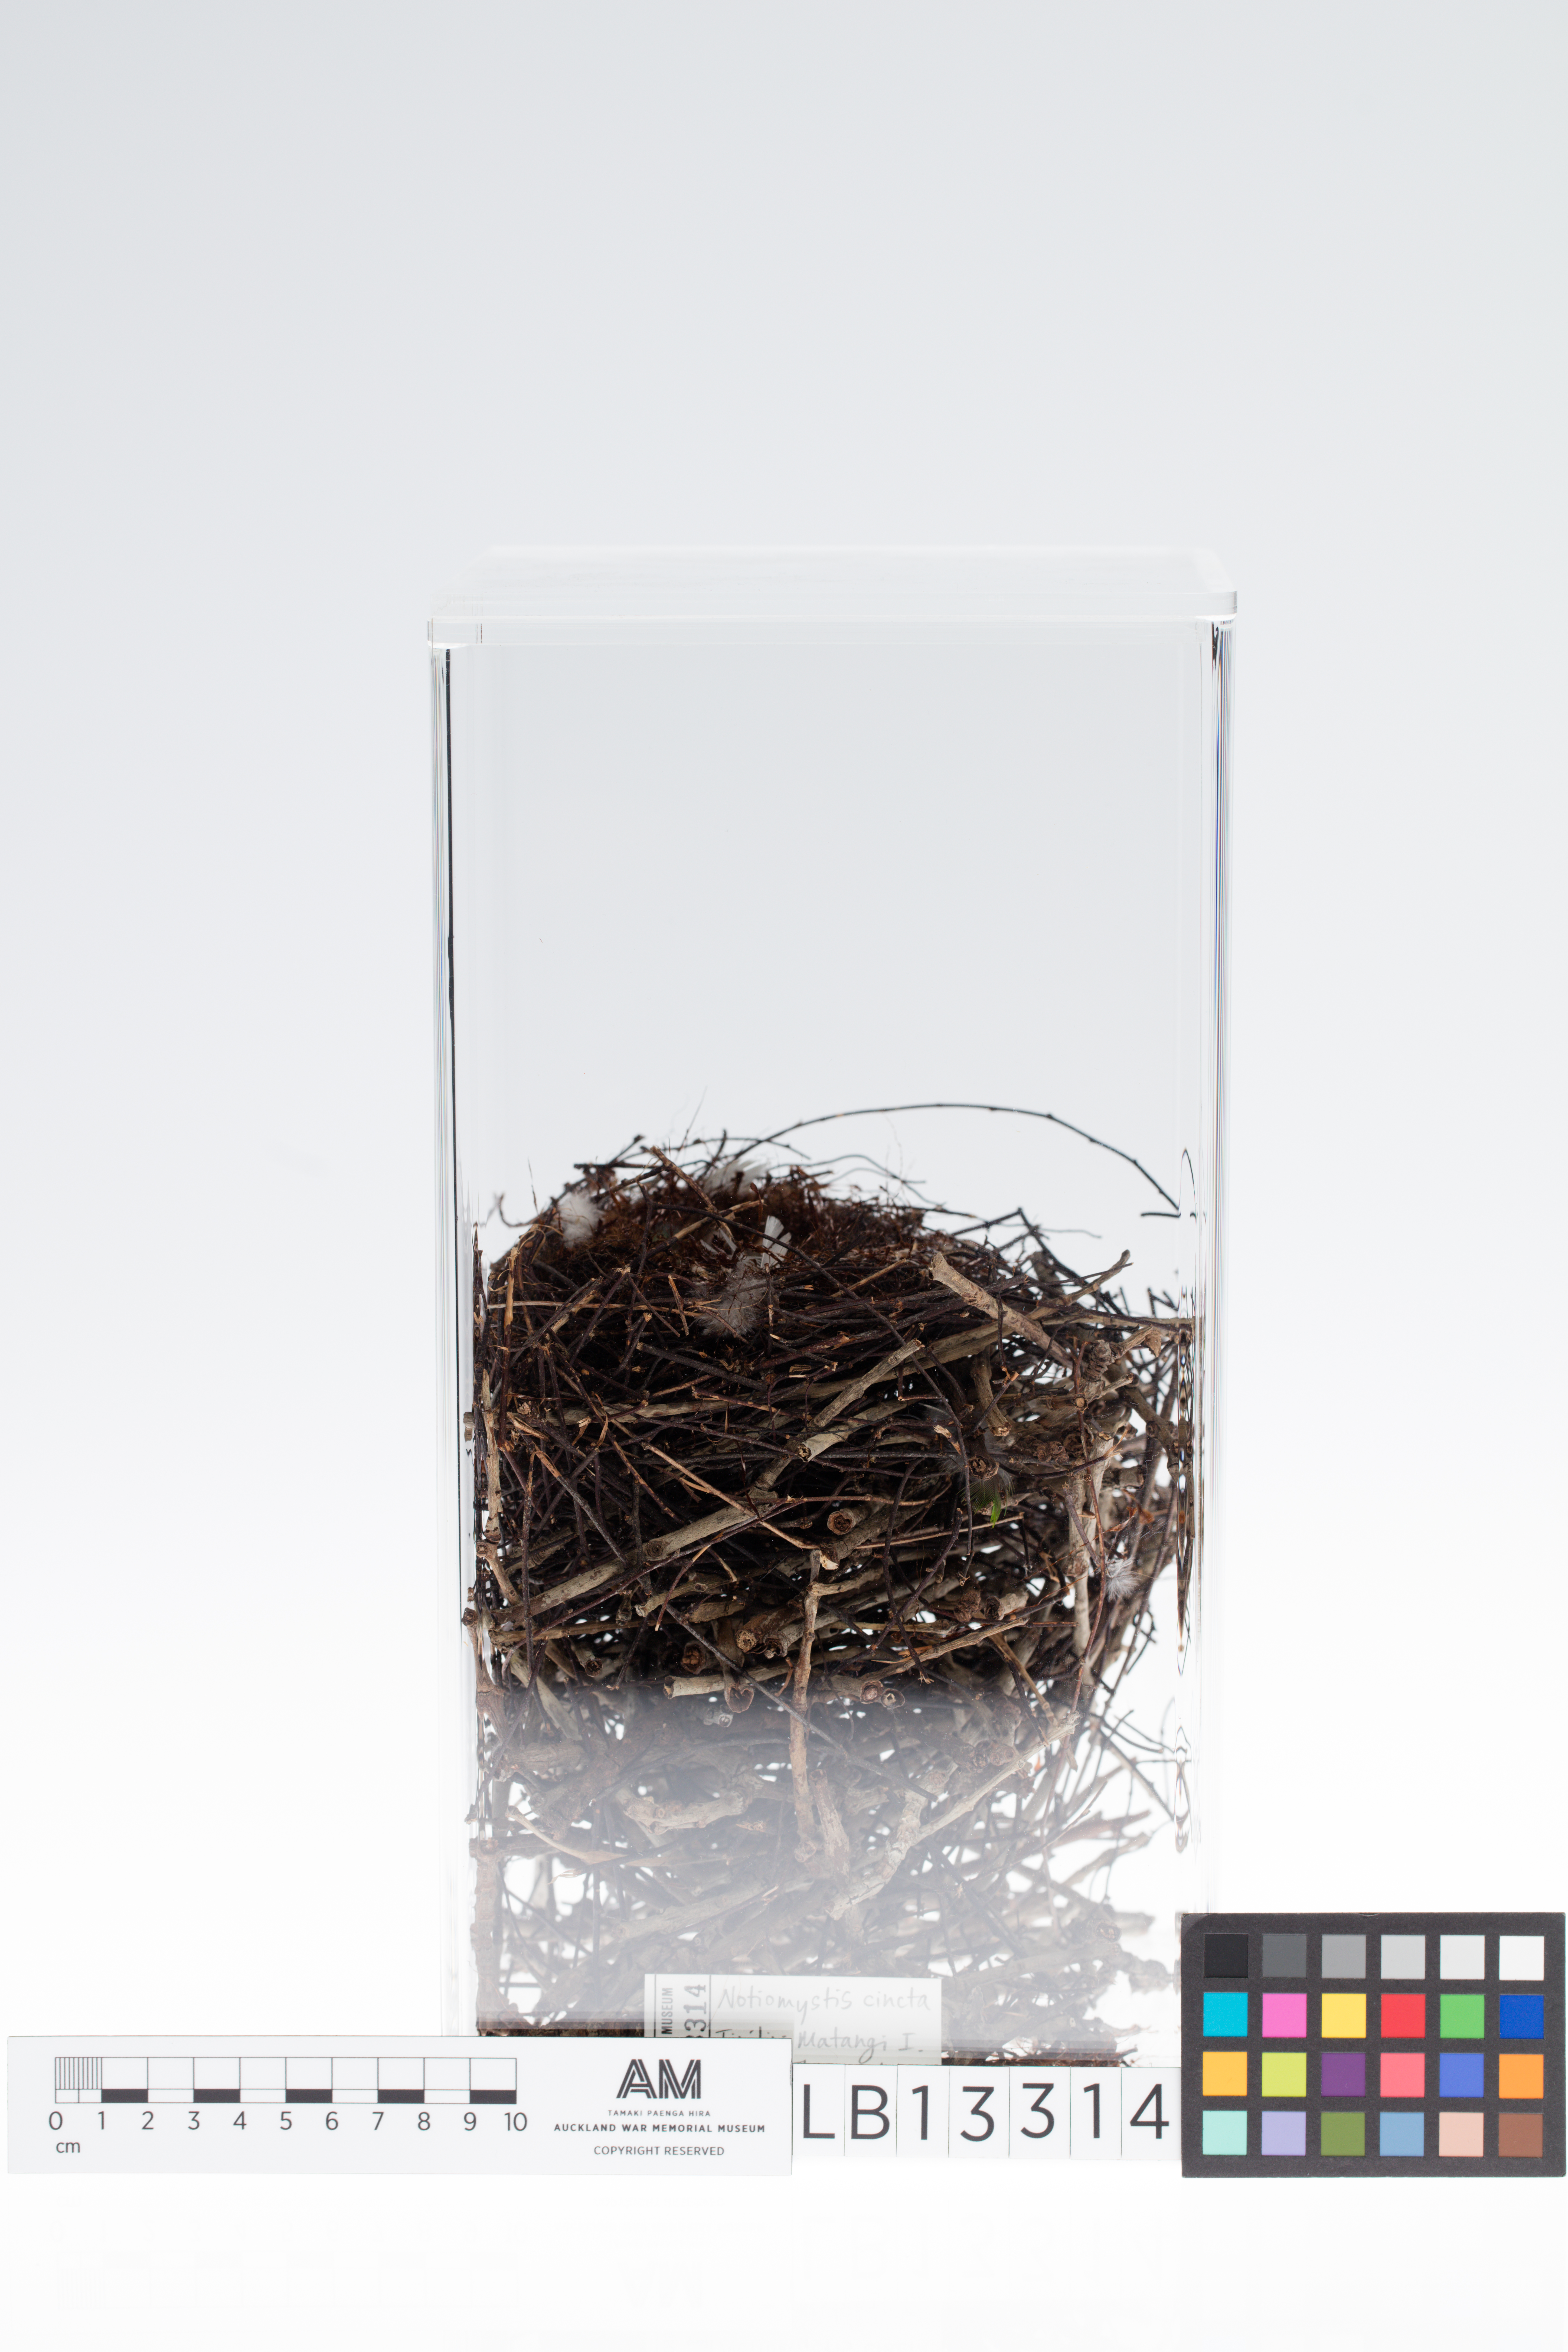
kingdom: Animalia
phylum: Chordata
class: Aves
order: Passeriformes
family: Notiomystidae
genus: Notiomystis
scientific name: Notiomystis cincta
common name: Stitchbird
